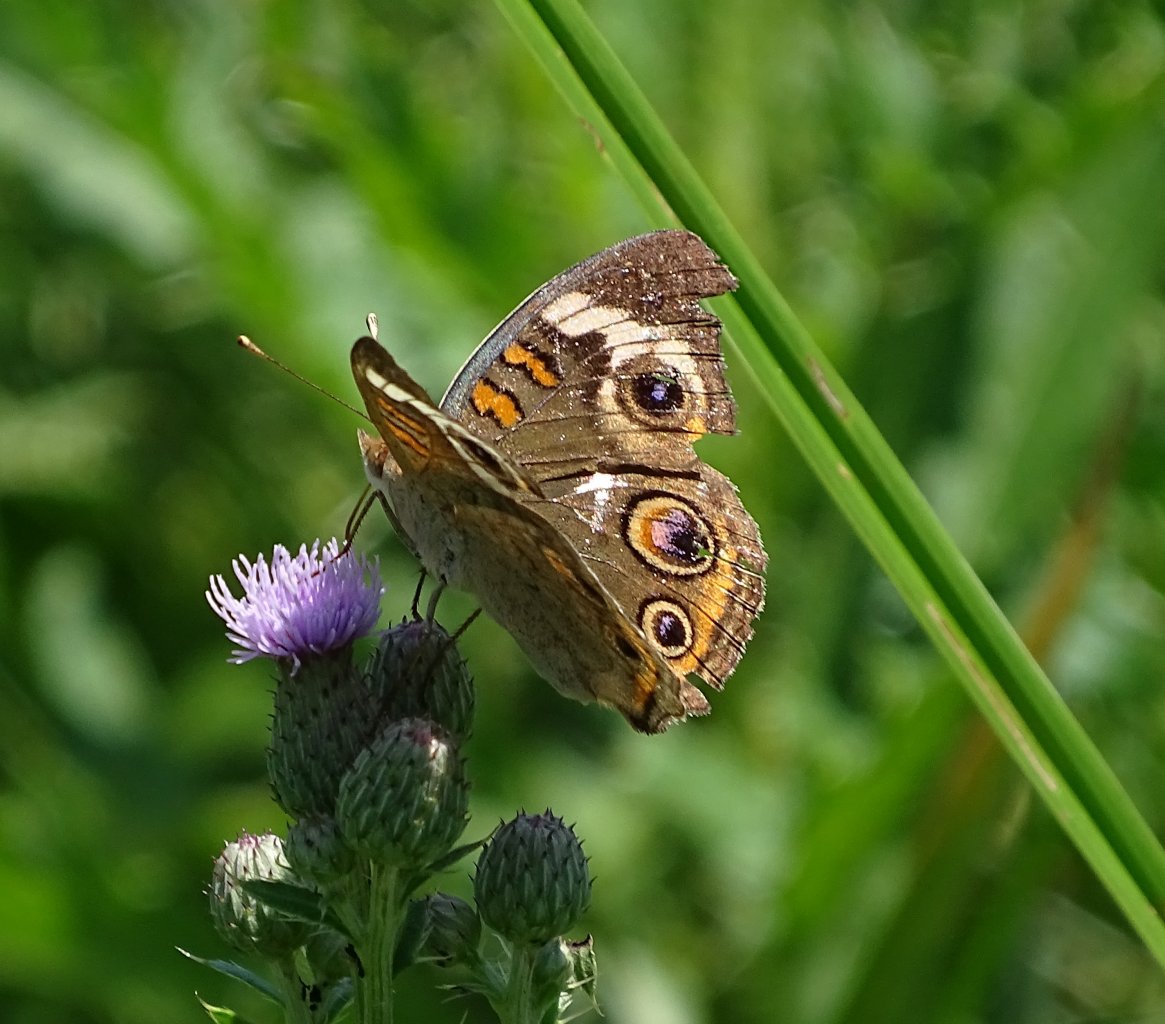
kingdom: Animalia
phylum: Arthropoda
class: Insecta
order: Lepidoptera
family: Nymphalidae
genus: Junonia
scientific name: Junonia coenia
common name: Common Buckeye
